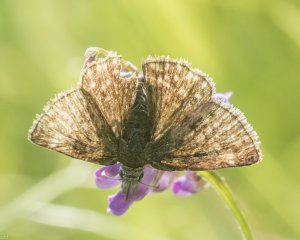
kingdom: Animalia
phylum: Arthropoda
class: Insecta
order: Lepidoptera
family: Hesperiidae
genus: Erynnis
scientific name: Erynnis icelus
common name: Dreamy Duskywing
